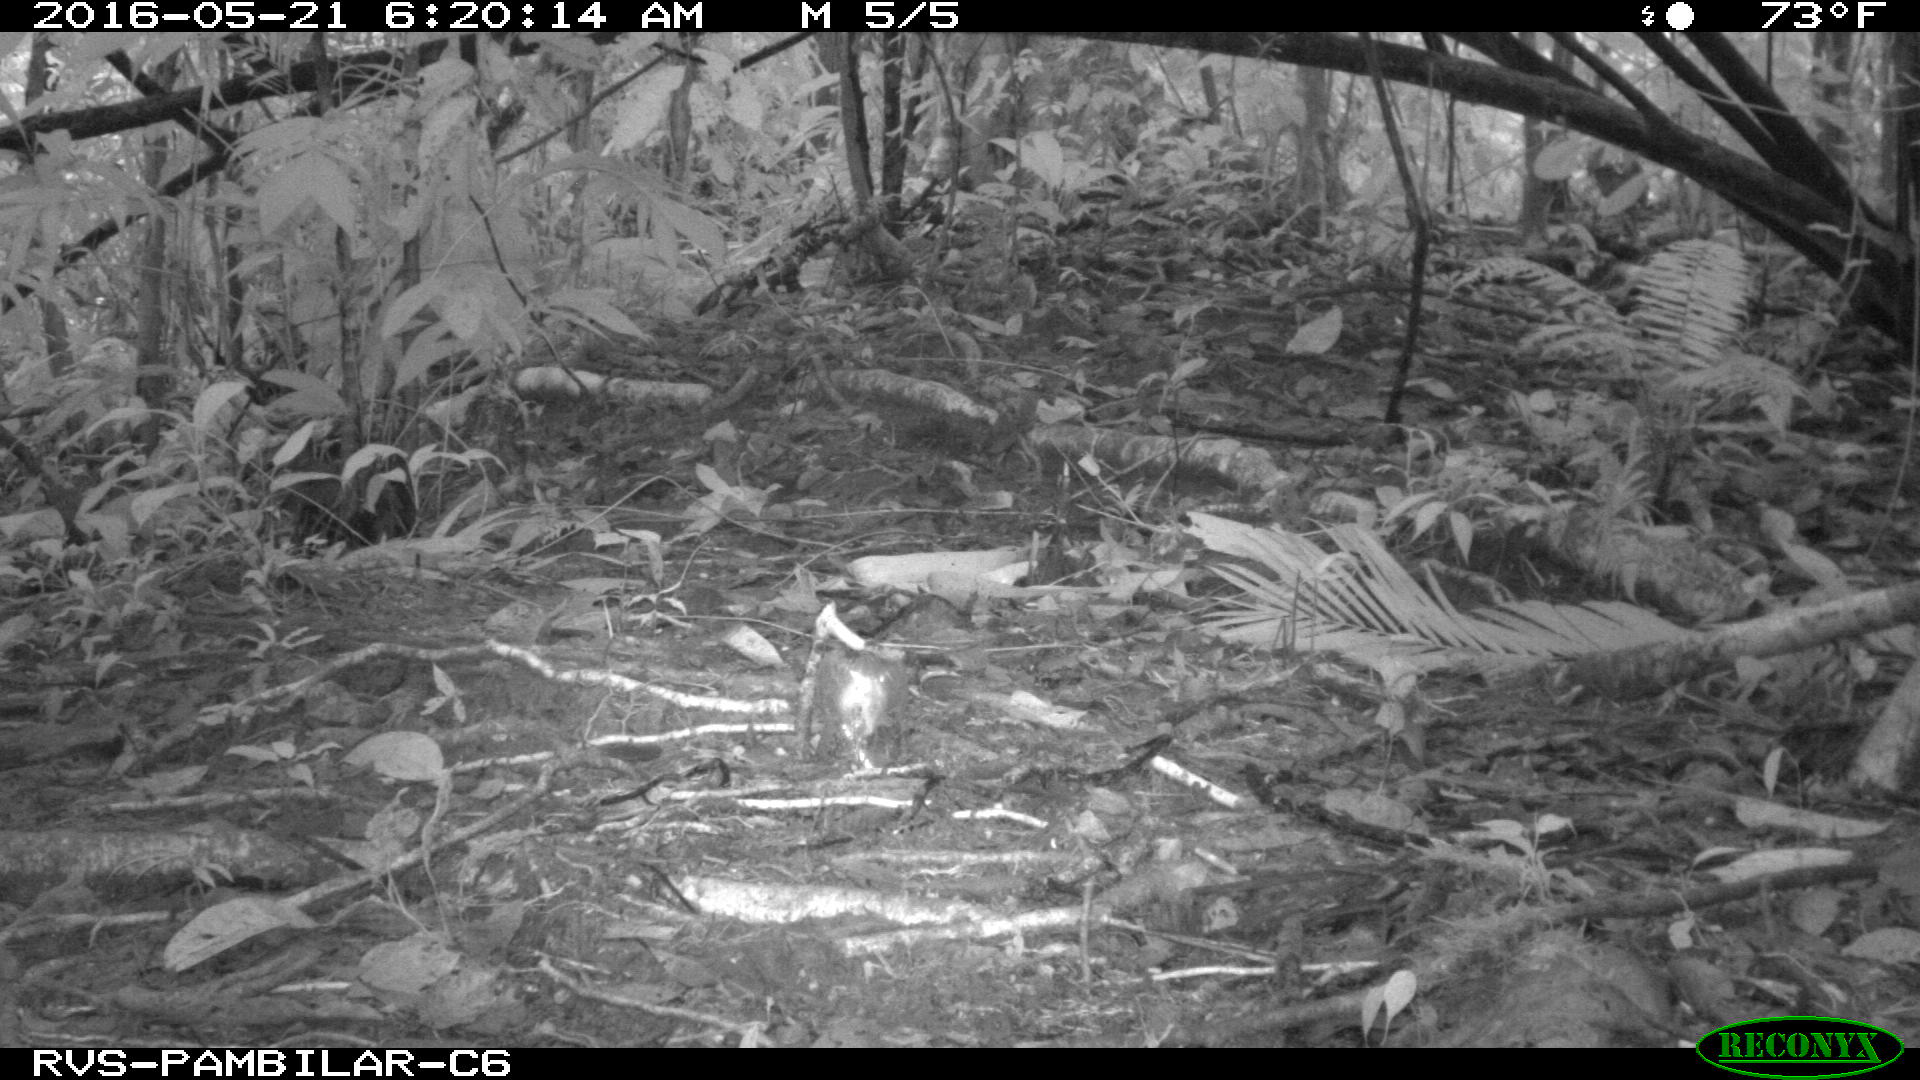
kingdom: Animalia
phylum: Chordata
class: Mammalia
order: Rodentia
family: Dasyproctidae
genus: Dasyprocta
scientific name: Dasyprocta punctata
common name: Central american agouti
